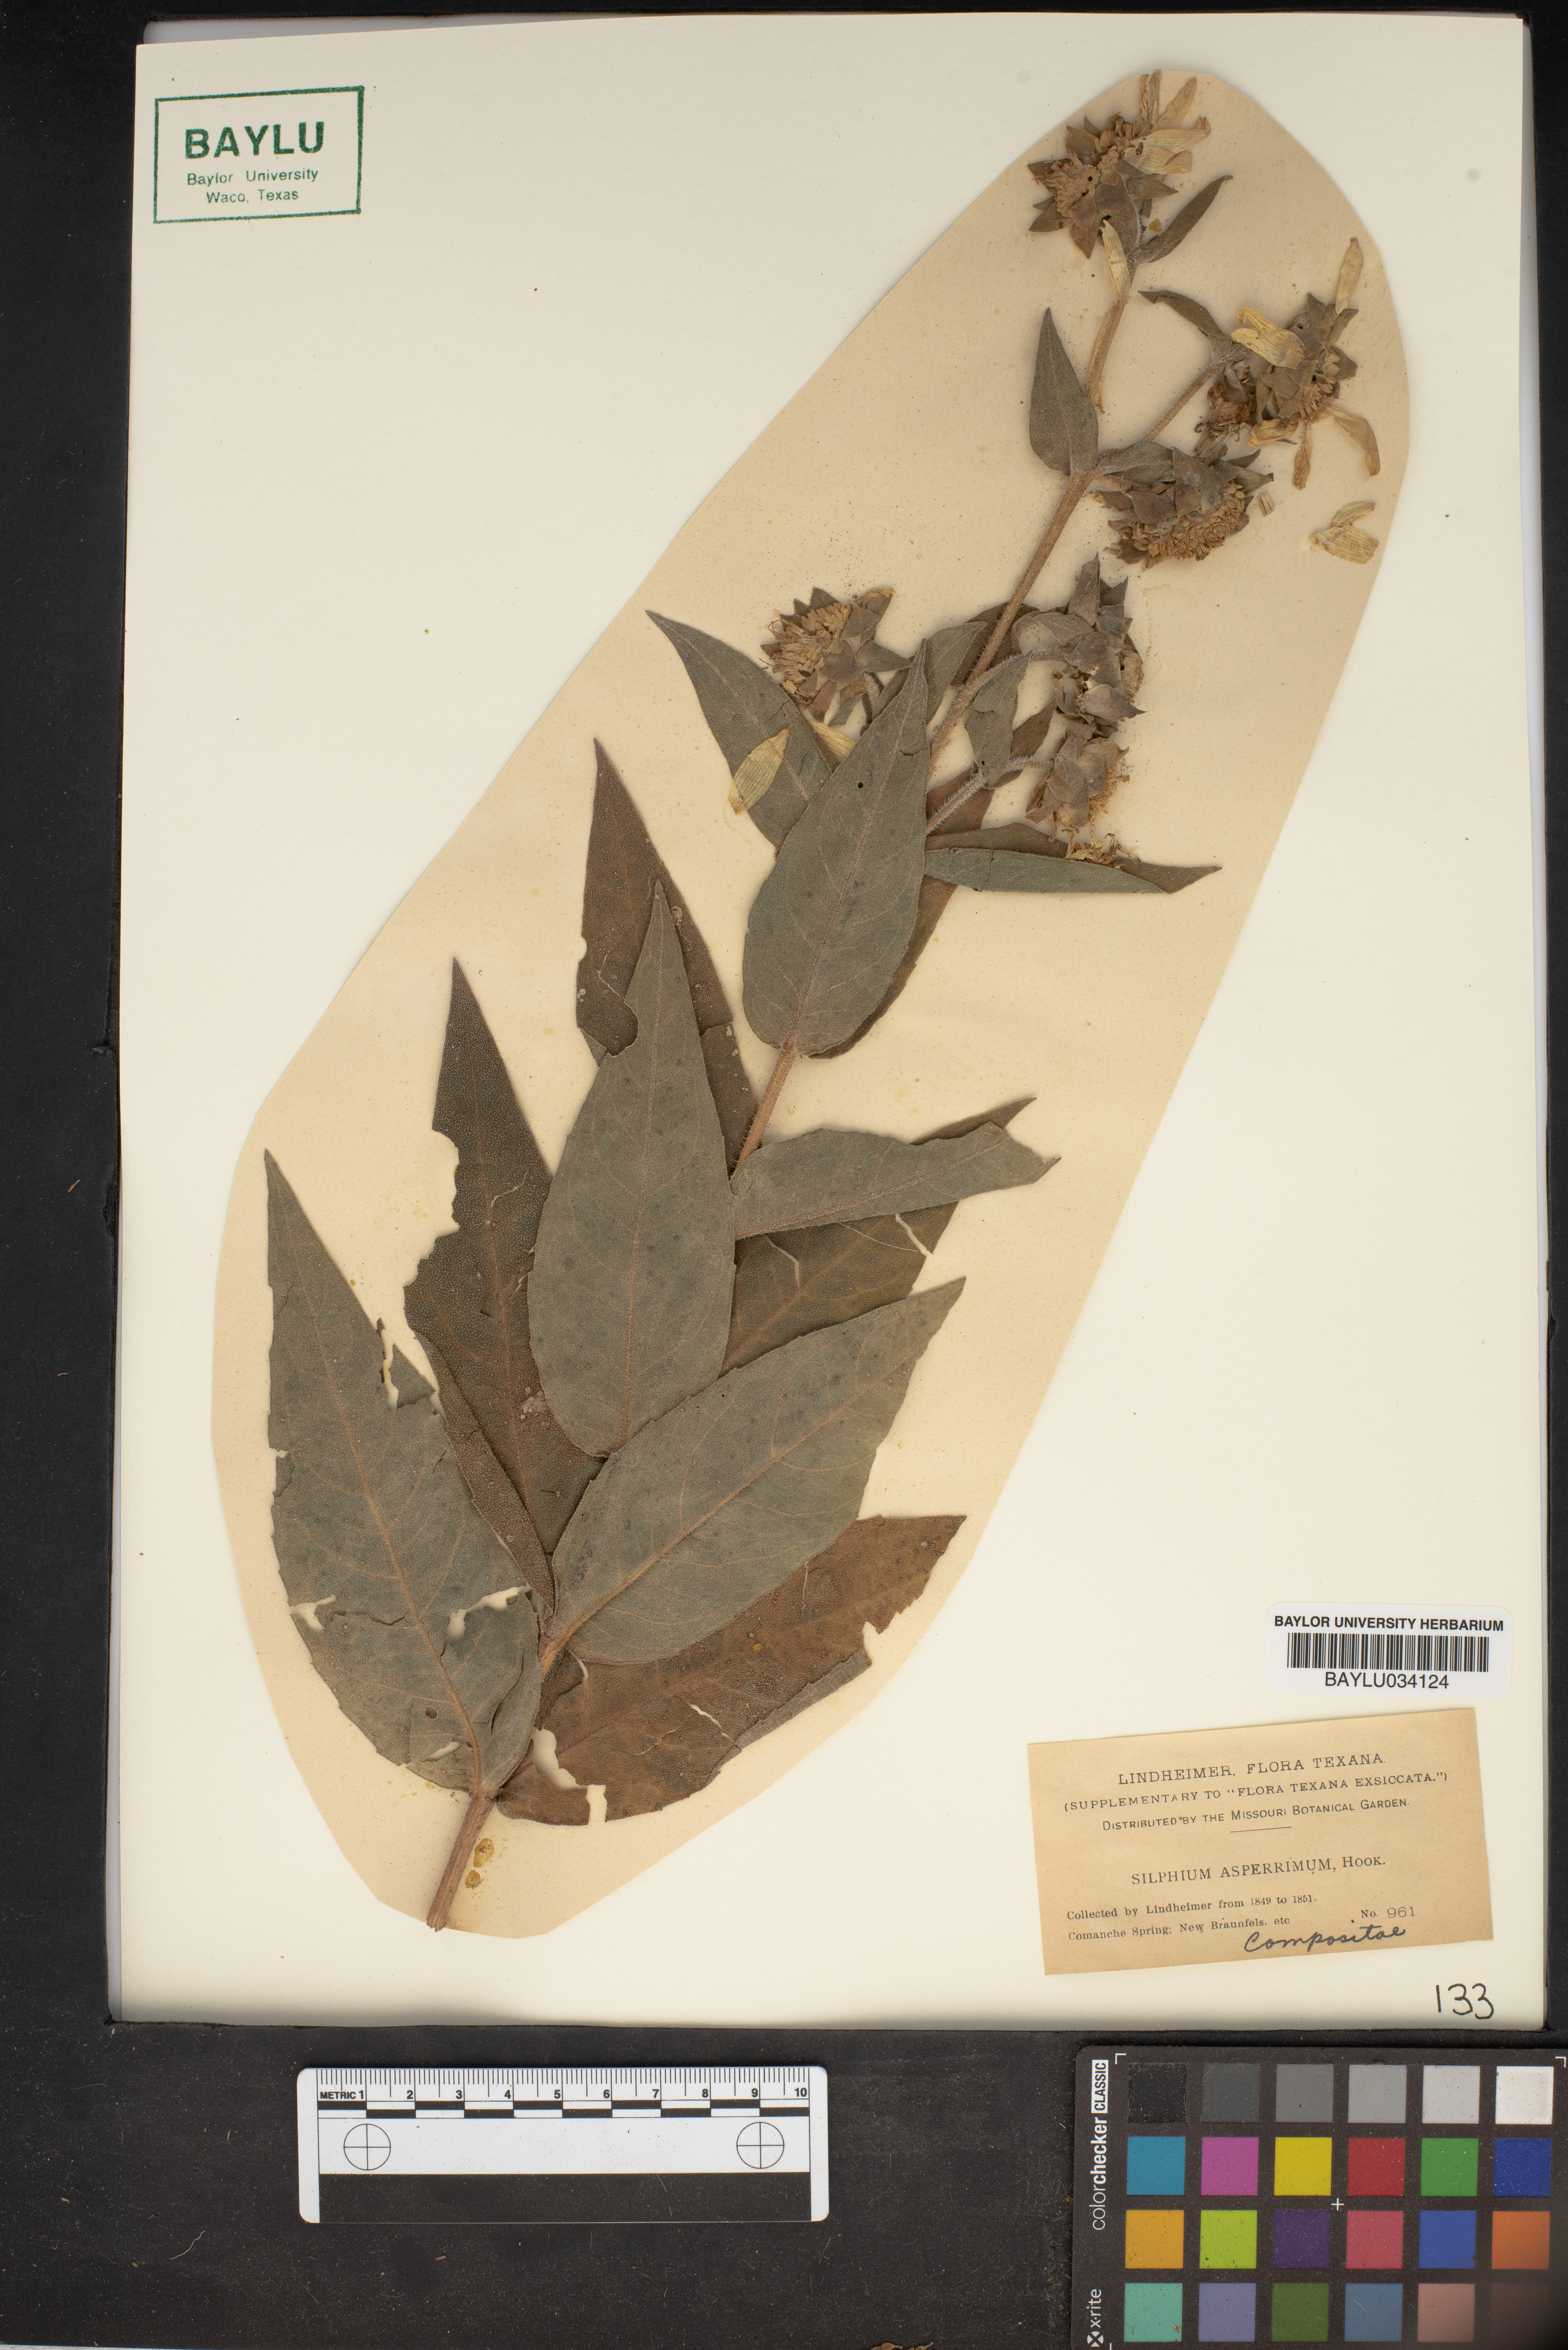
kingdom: Plantae
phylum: Tracheophyta
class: Magnoliopsida
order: Asterales
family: Asteraceae
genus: Silphium
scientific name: Silphium asperrimum
